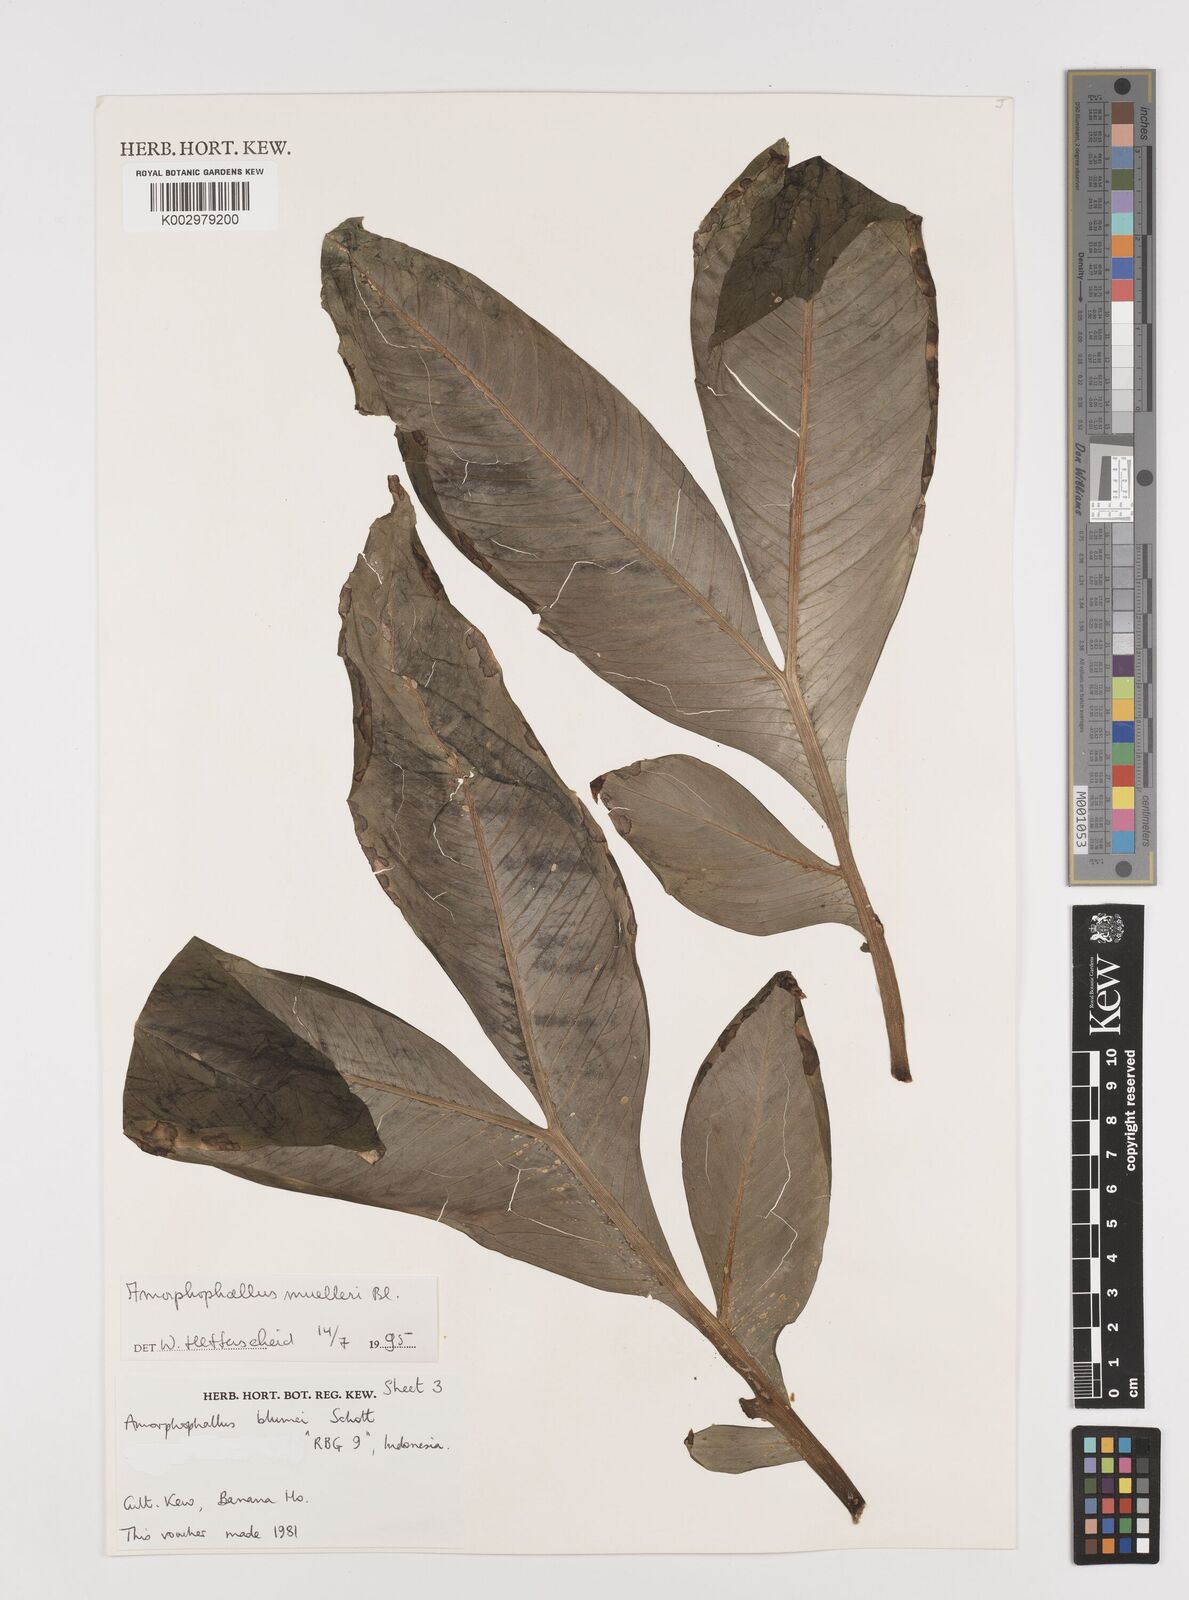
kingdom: Plantae
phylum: Tracheophyta
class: Liliopsida
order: Alismatales
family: Araceae
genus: Amorphophallus
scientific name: Amorphophallus muelleri
